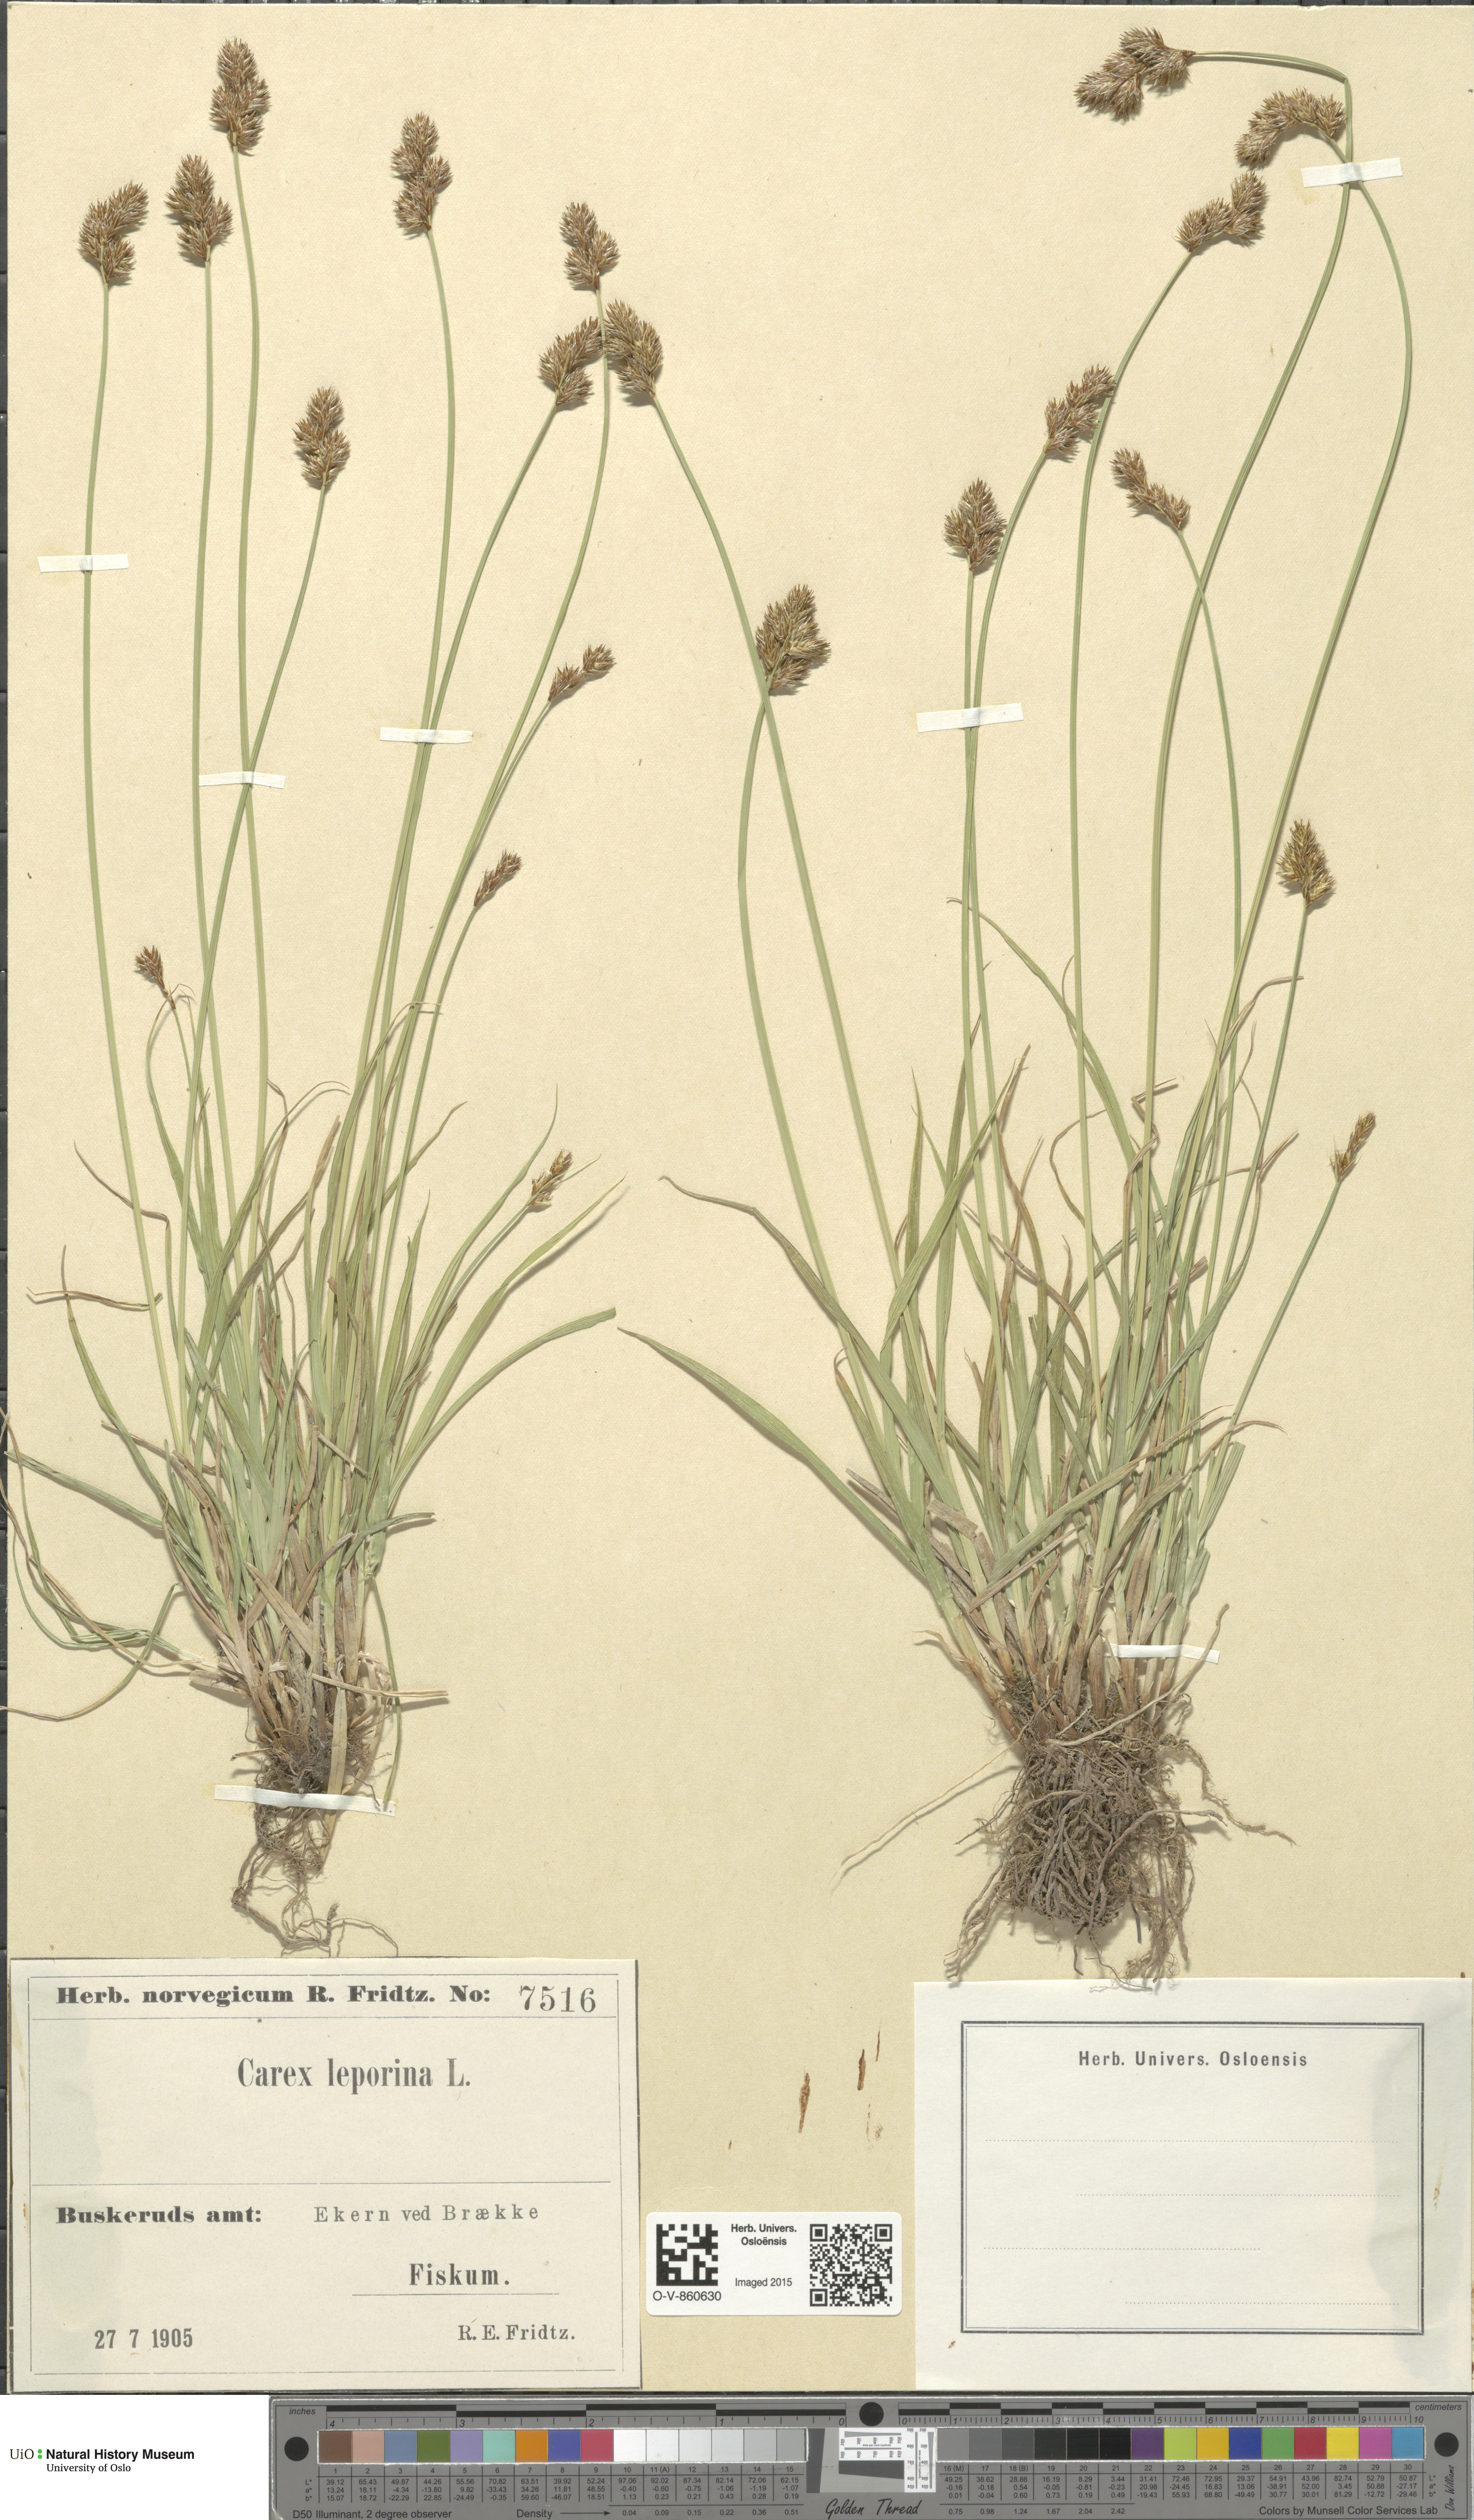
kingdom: Plantae
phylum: Tracheophyta
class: Liliopsida
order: Poales
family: Cyperaceae
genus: Carex
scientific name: Carex leporina
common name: Oval sedge
